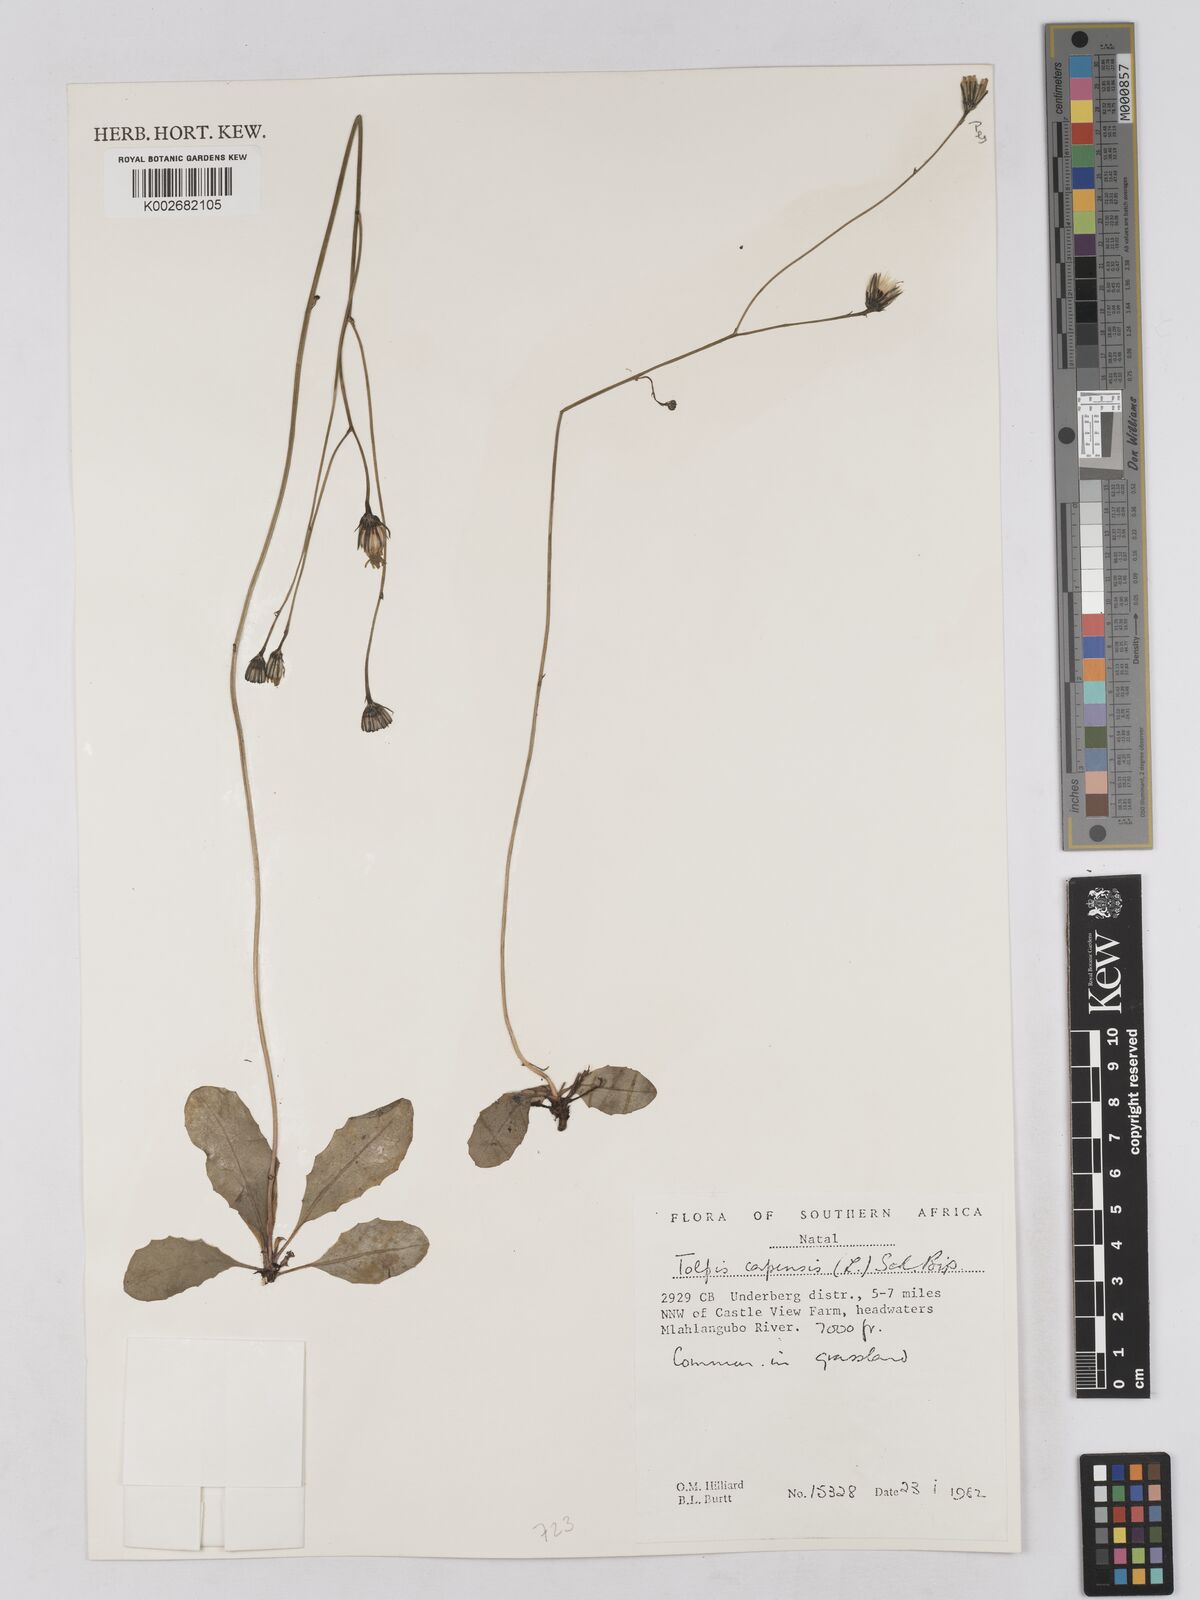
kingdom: Plantae
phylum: Tracheophyta
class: Magnoliopsida
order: Asterales
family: Asteraceae
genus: Tolpis
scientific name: Tolpis capensis
